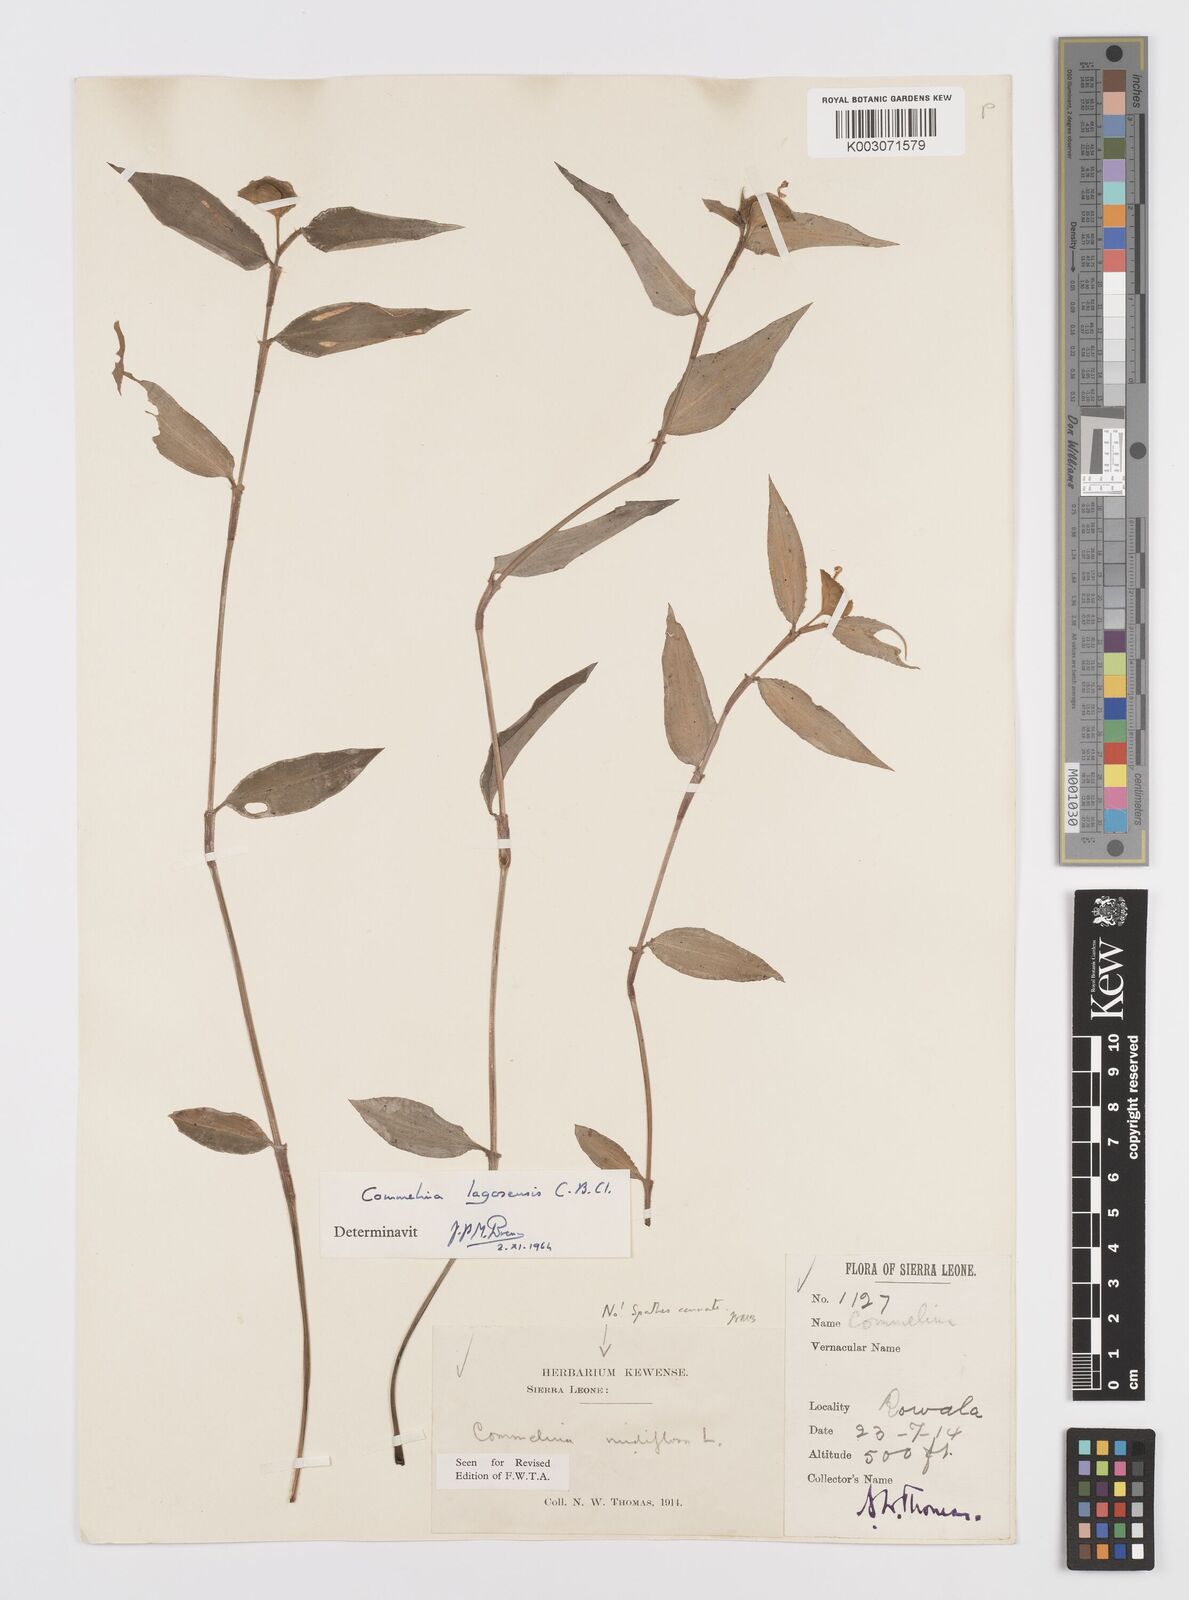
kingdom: Plantae
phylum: Tracheophyta
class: Liliopsida
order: Commelinales
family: Commelinaceae
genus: Commelina
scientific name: Commelina bracteosa
